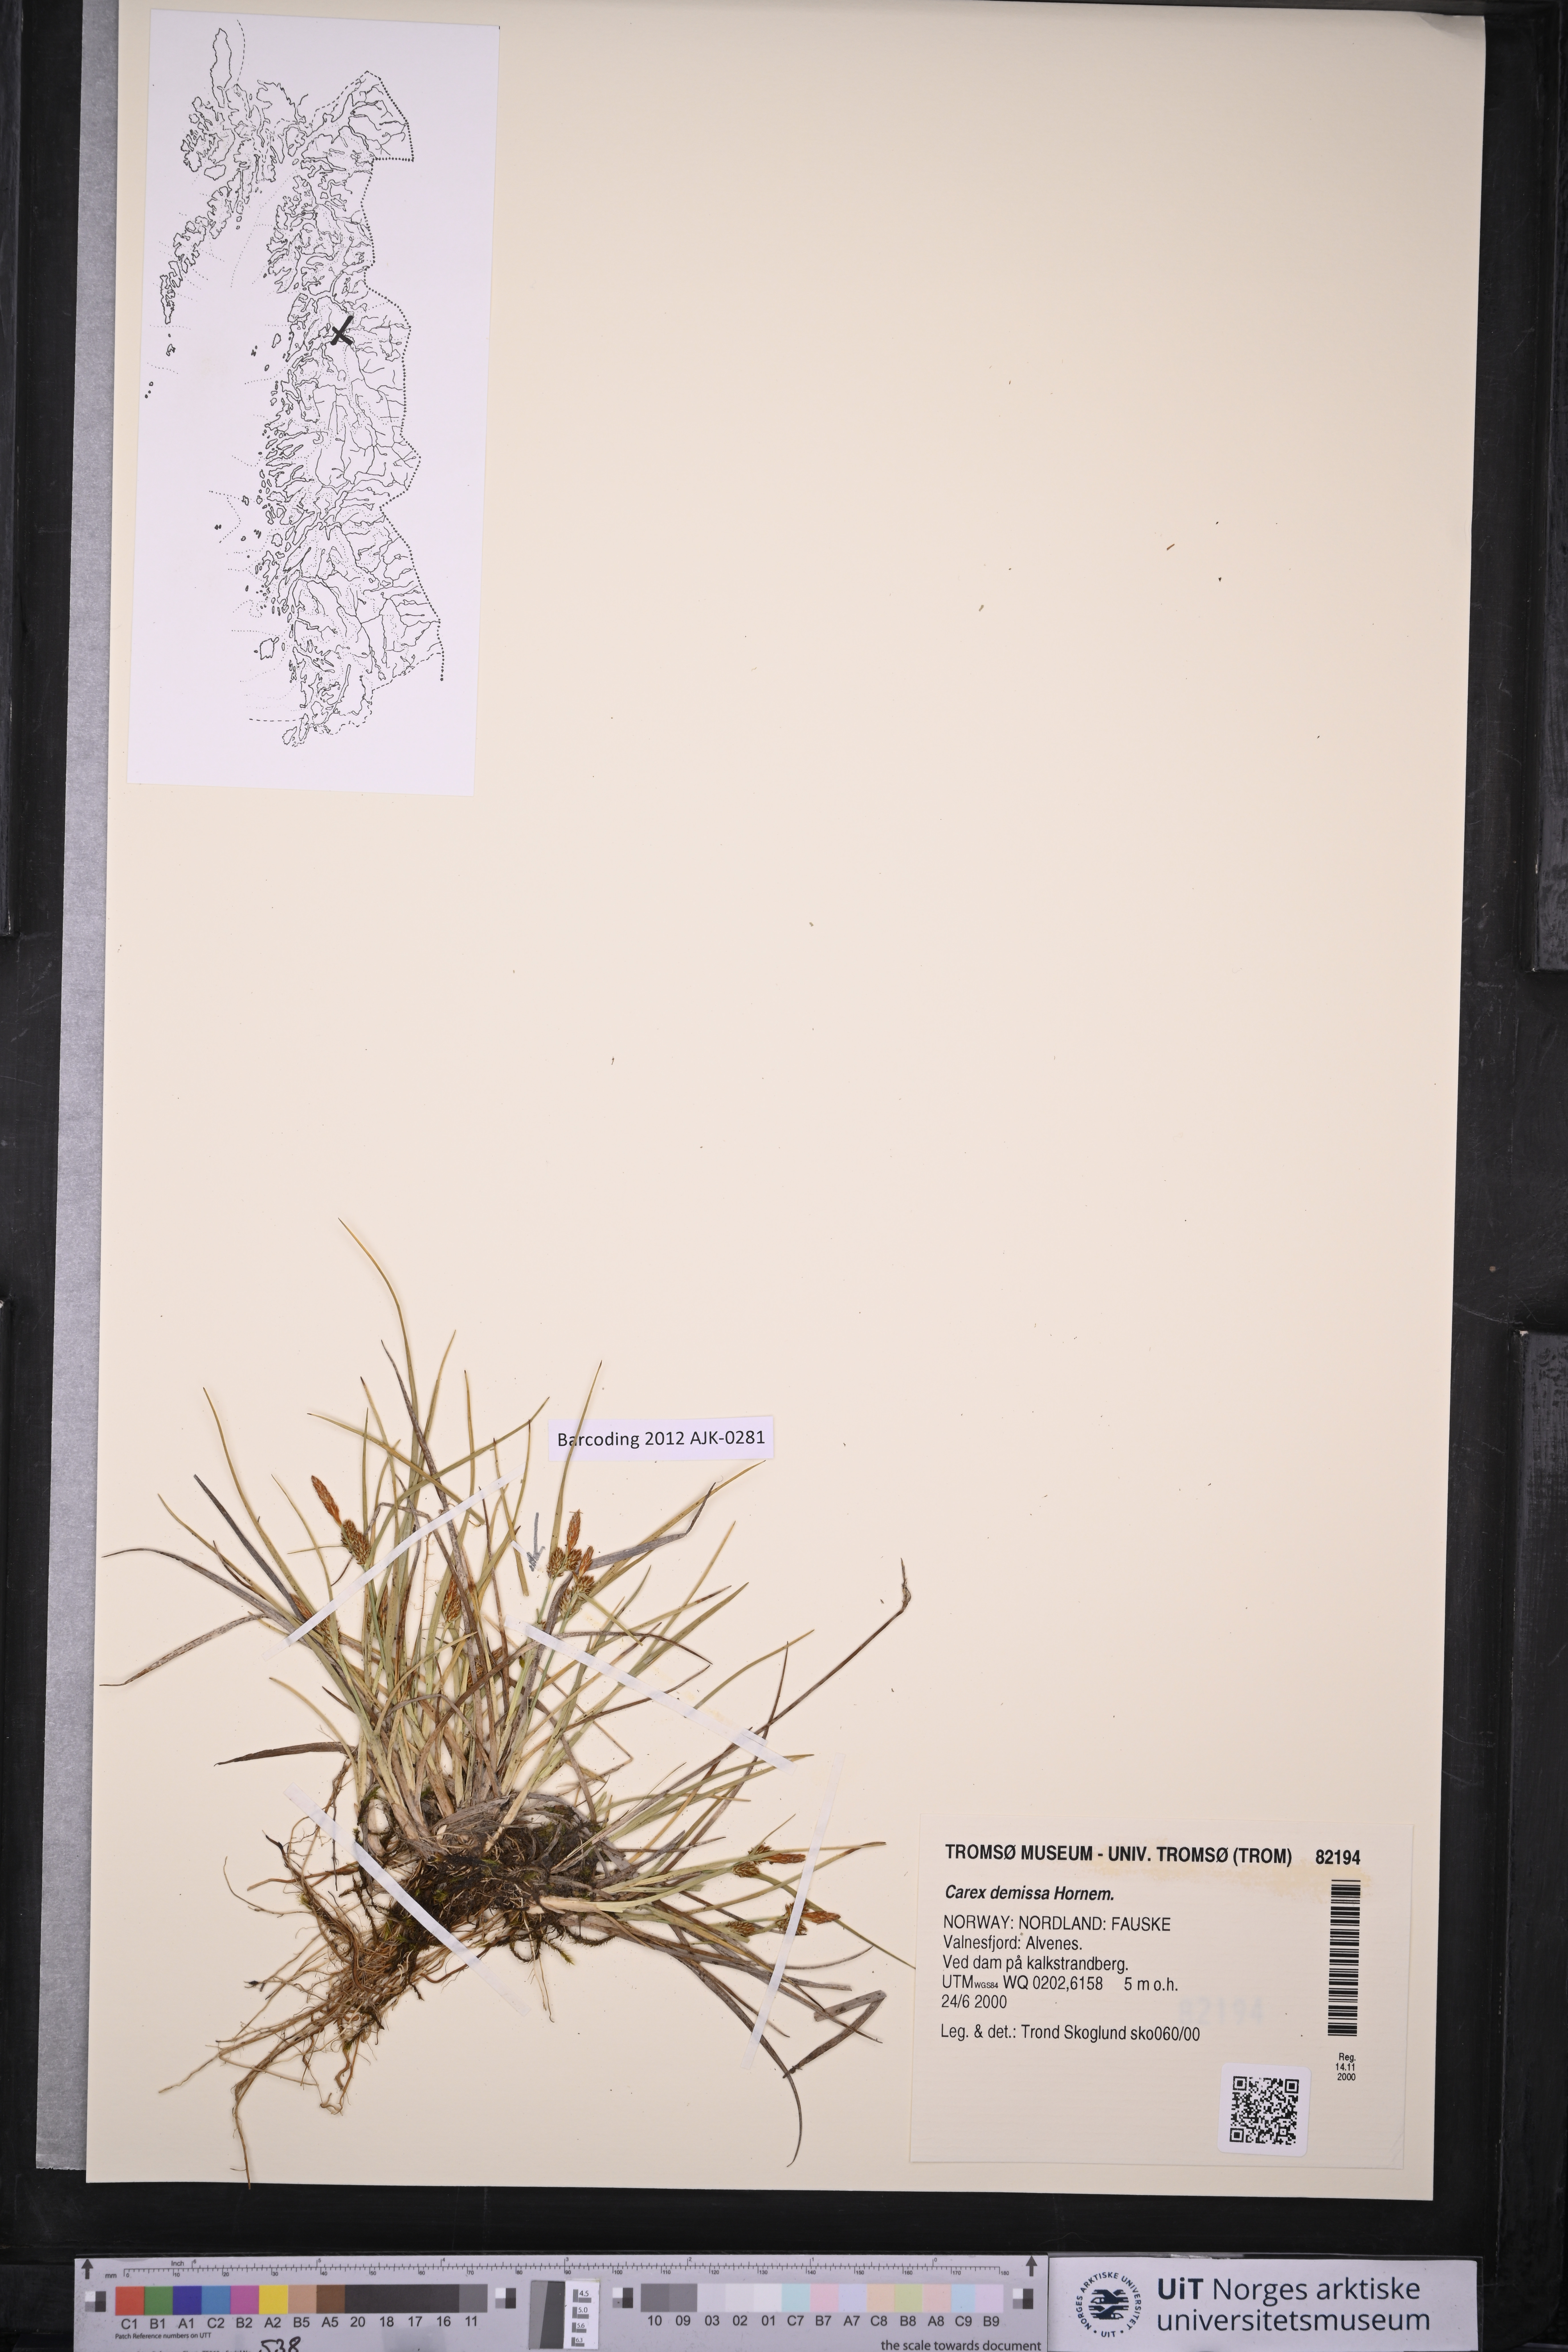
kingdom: Plantae
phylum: Tracheophyta
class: Liliopsida
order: Poales
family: Cyperaceae
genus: Carex
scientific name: Carex demissa
